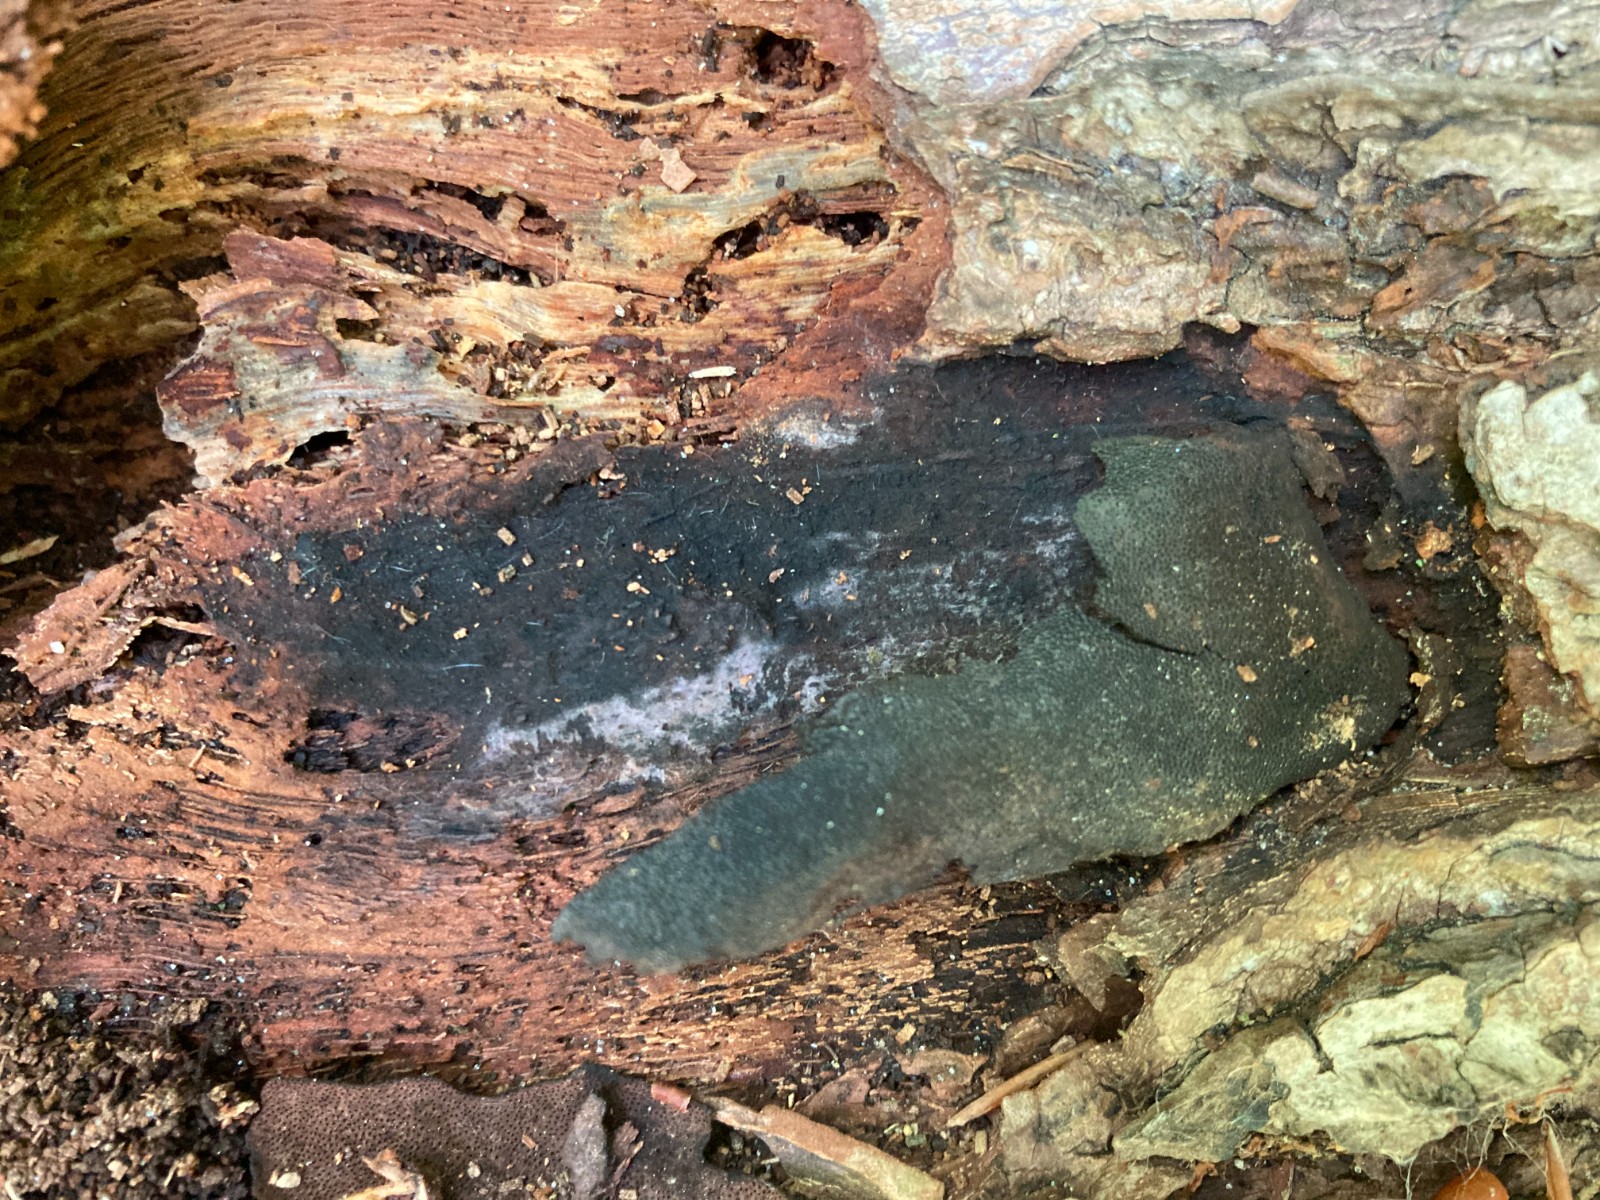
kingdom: Fungi
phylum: Ascomycota
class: Sordariomycetes
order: Boliniales
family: Boliniaceae
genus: Camarops
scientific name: Camarops polysperma
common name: elle-kulsnegl
